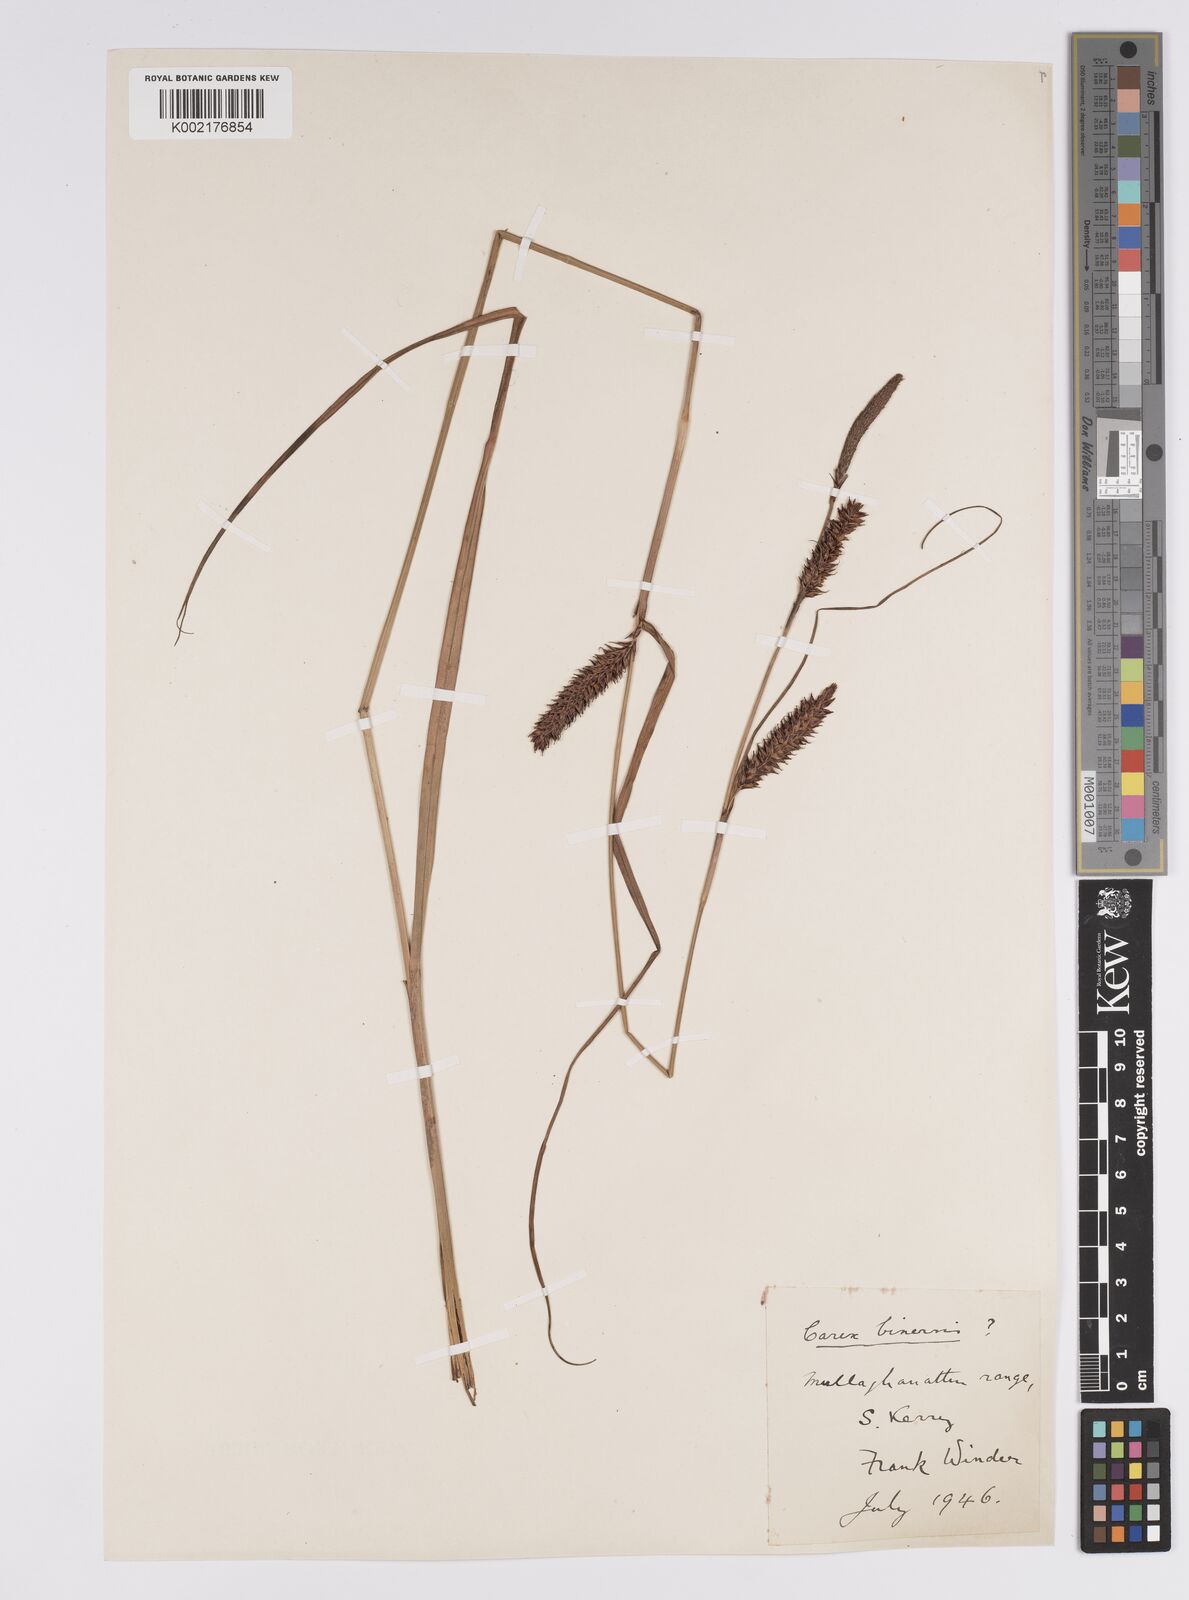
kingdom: Plantae
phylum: Tracheophyta
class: Liliopsida
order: Poales
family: Cyperaceae
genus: Carex
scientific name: Carex binervis
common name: Green-ribbed sedge
